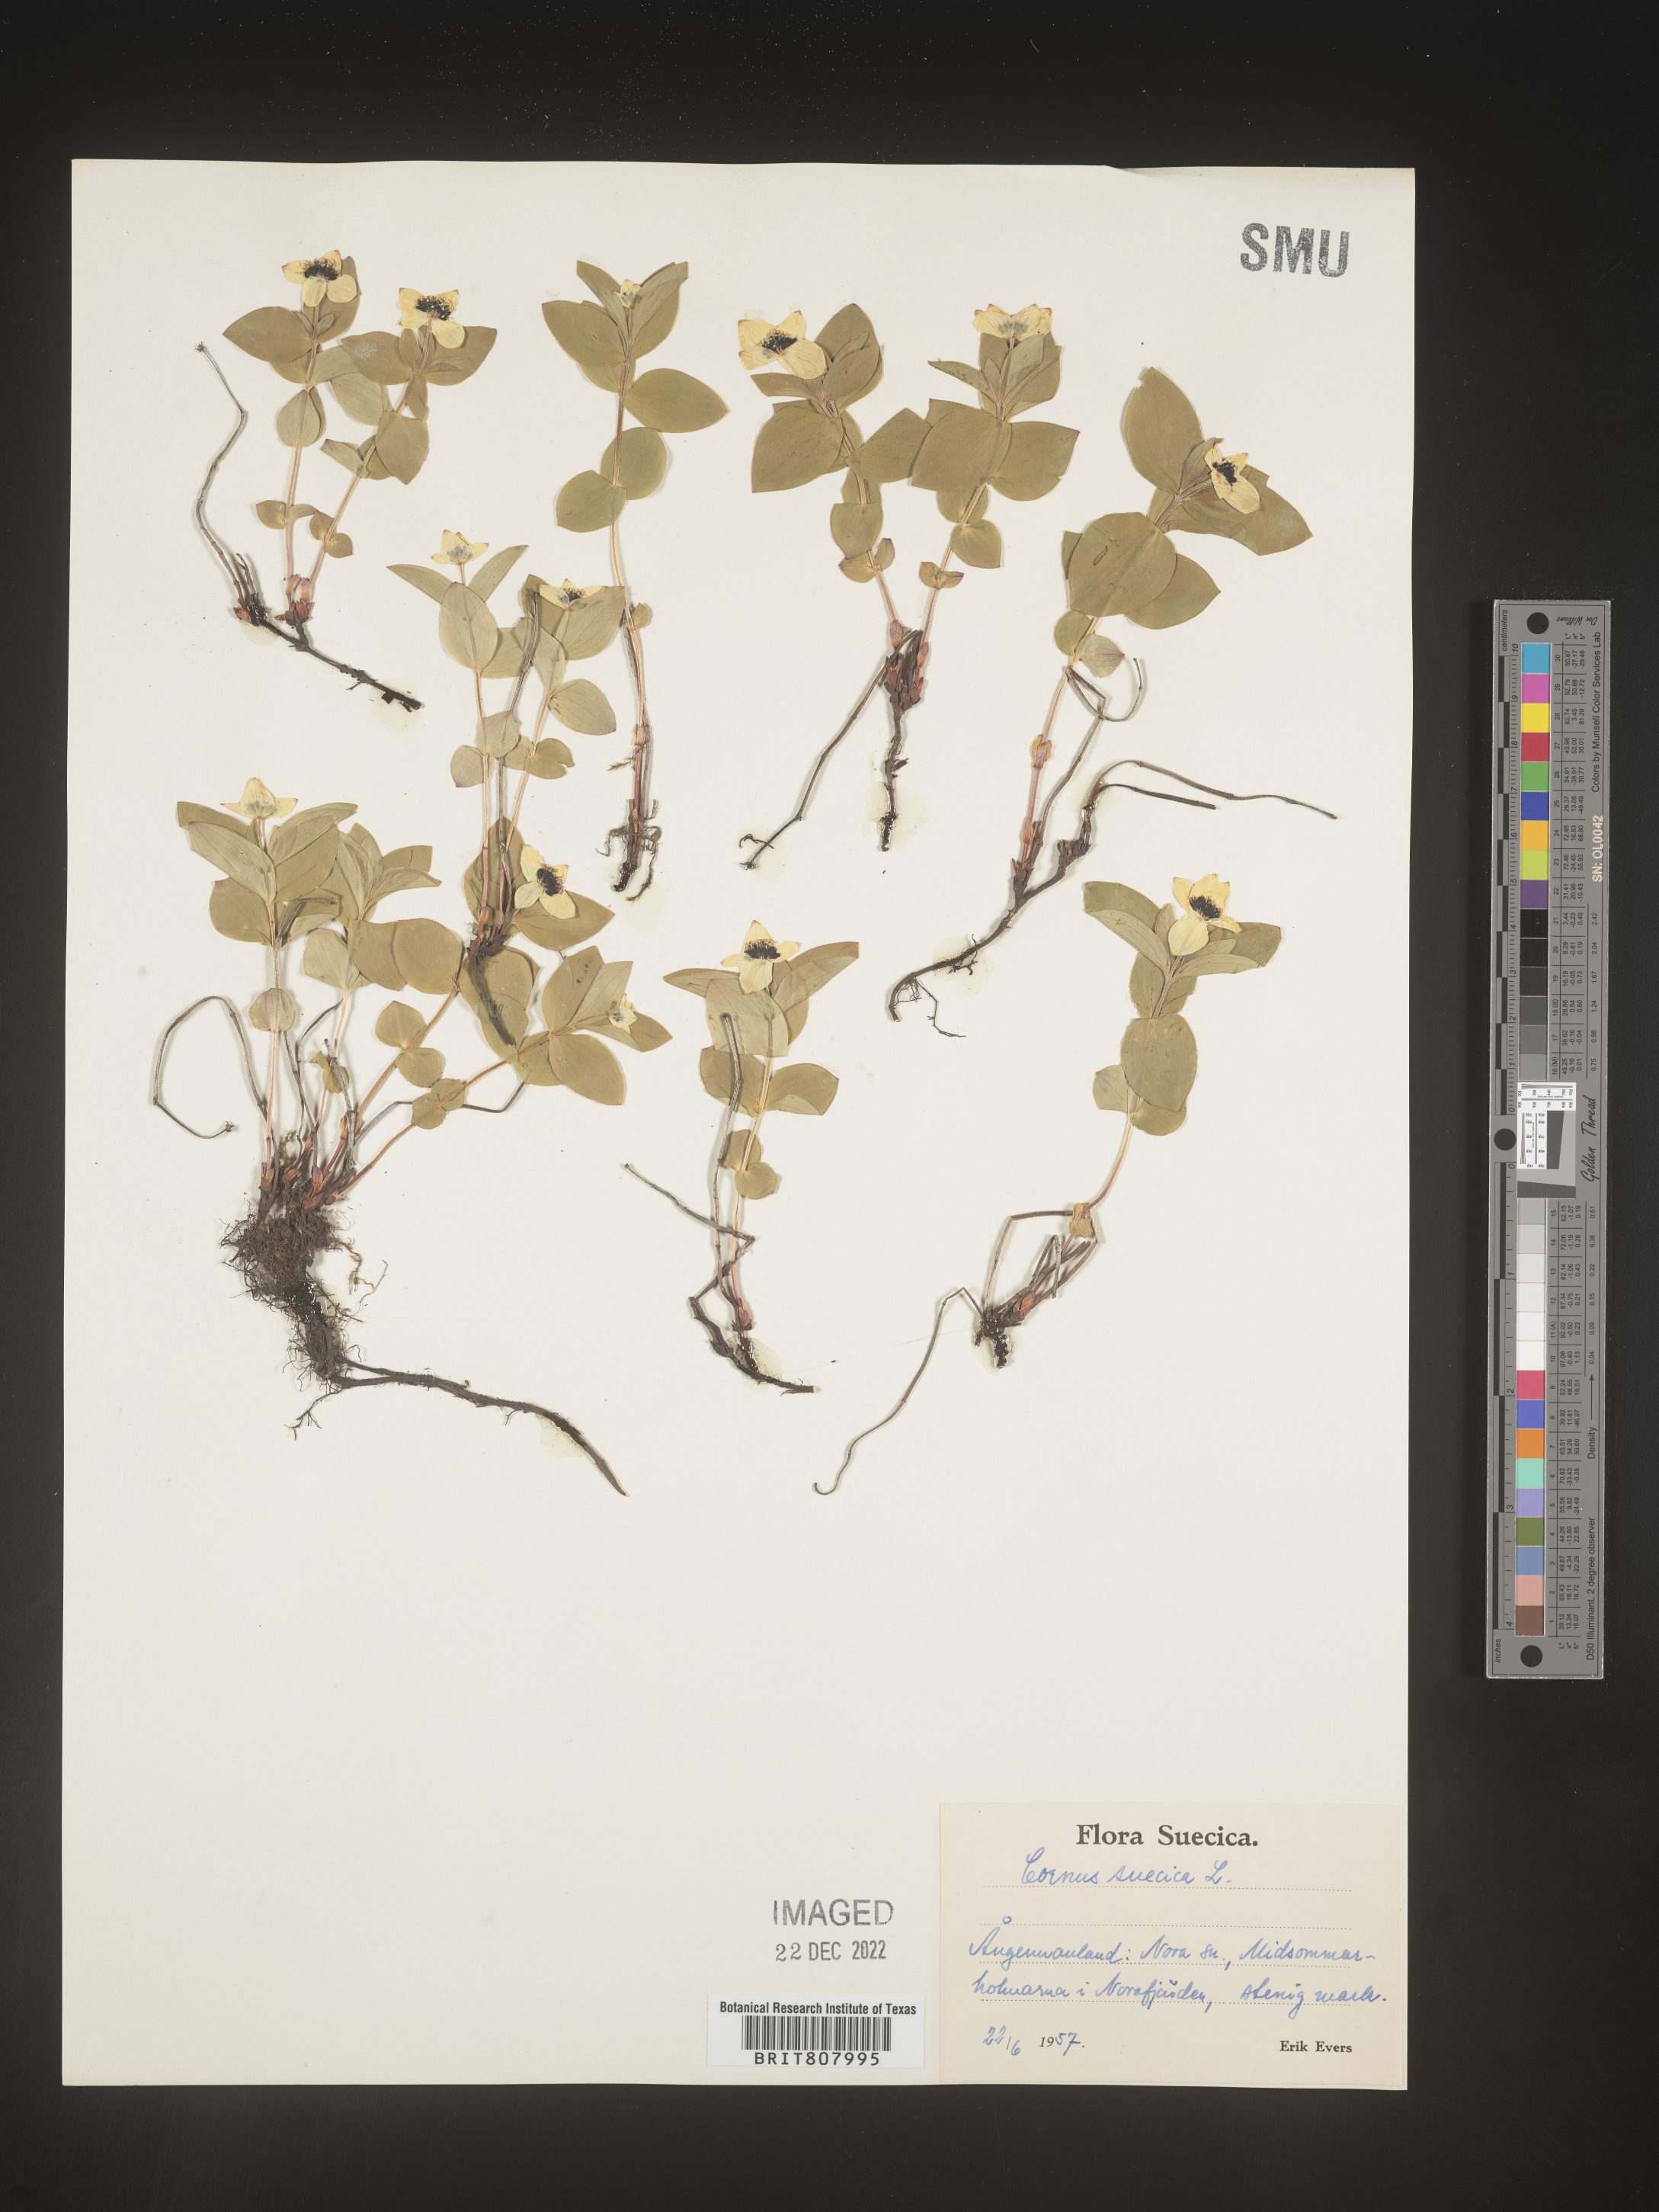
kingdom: Plantae
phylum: Tracheophyta
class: Magnoliopsida
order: Cornales
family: Cornaceae
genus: Cornus
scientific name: Cornus
